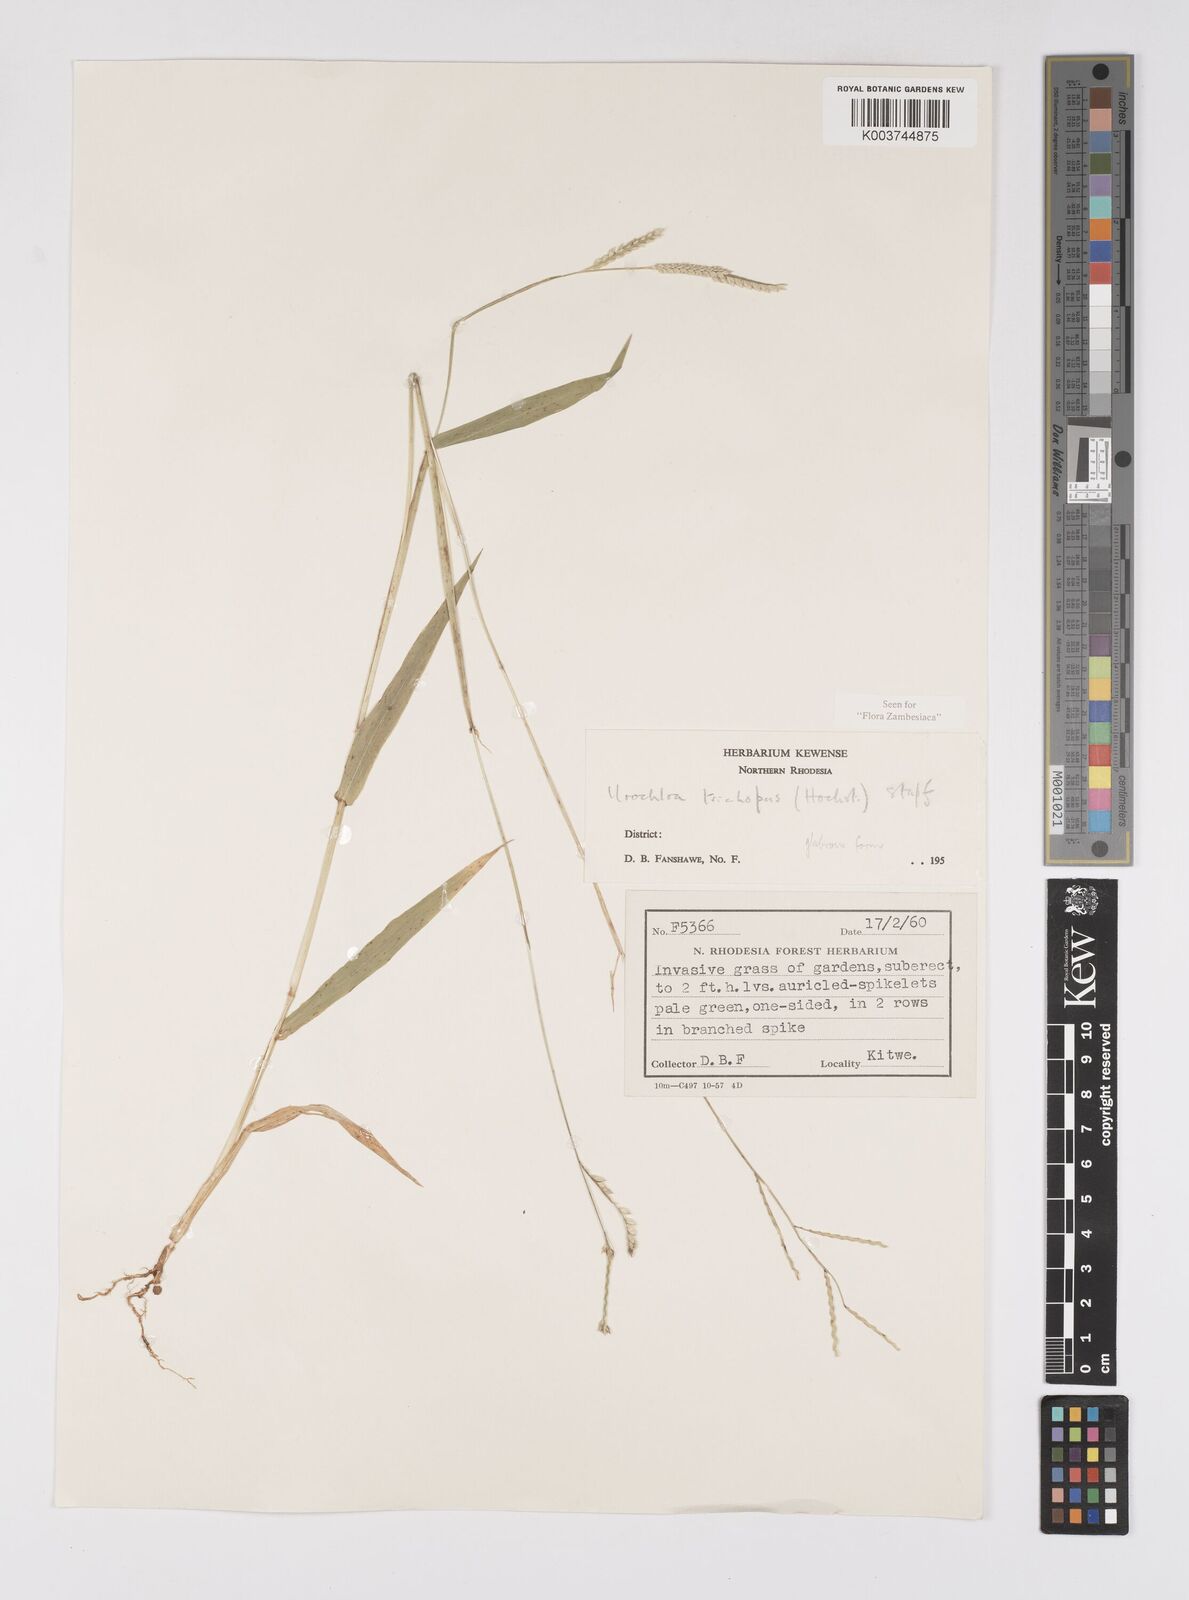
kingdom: Plantae
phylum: Tracheophyta
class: Liliopsida
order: Poales
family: Poaceae
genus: Urochloa
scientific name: Urochloa trichopus
